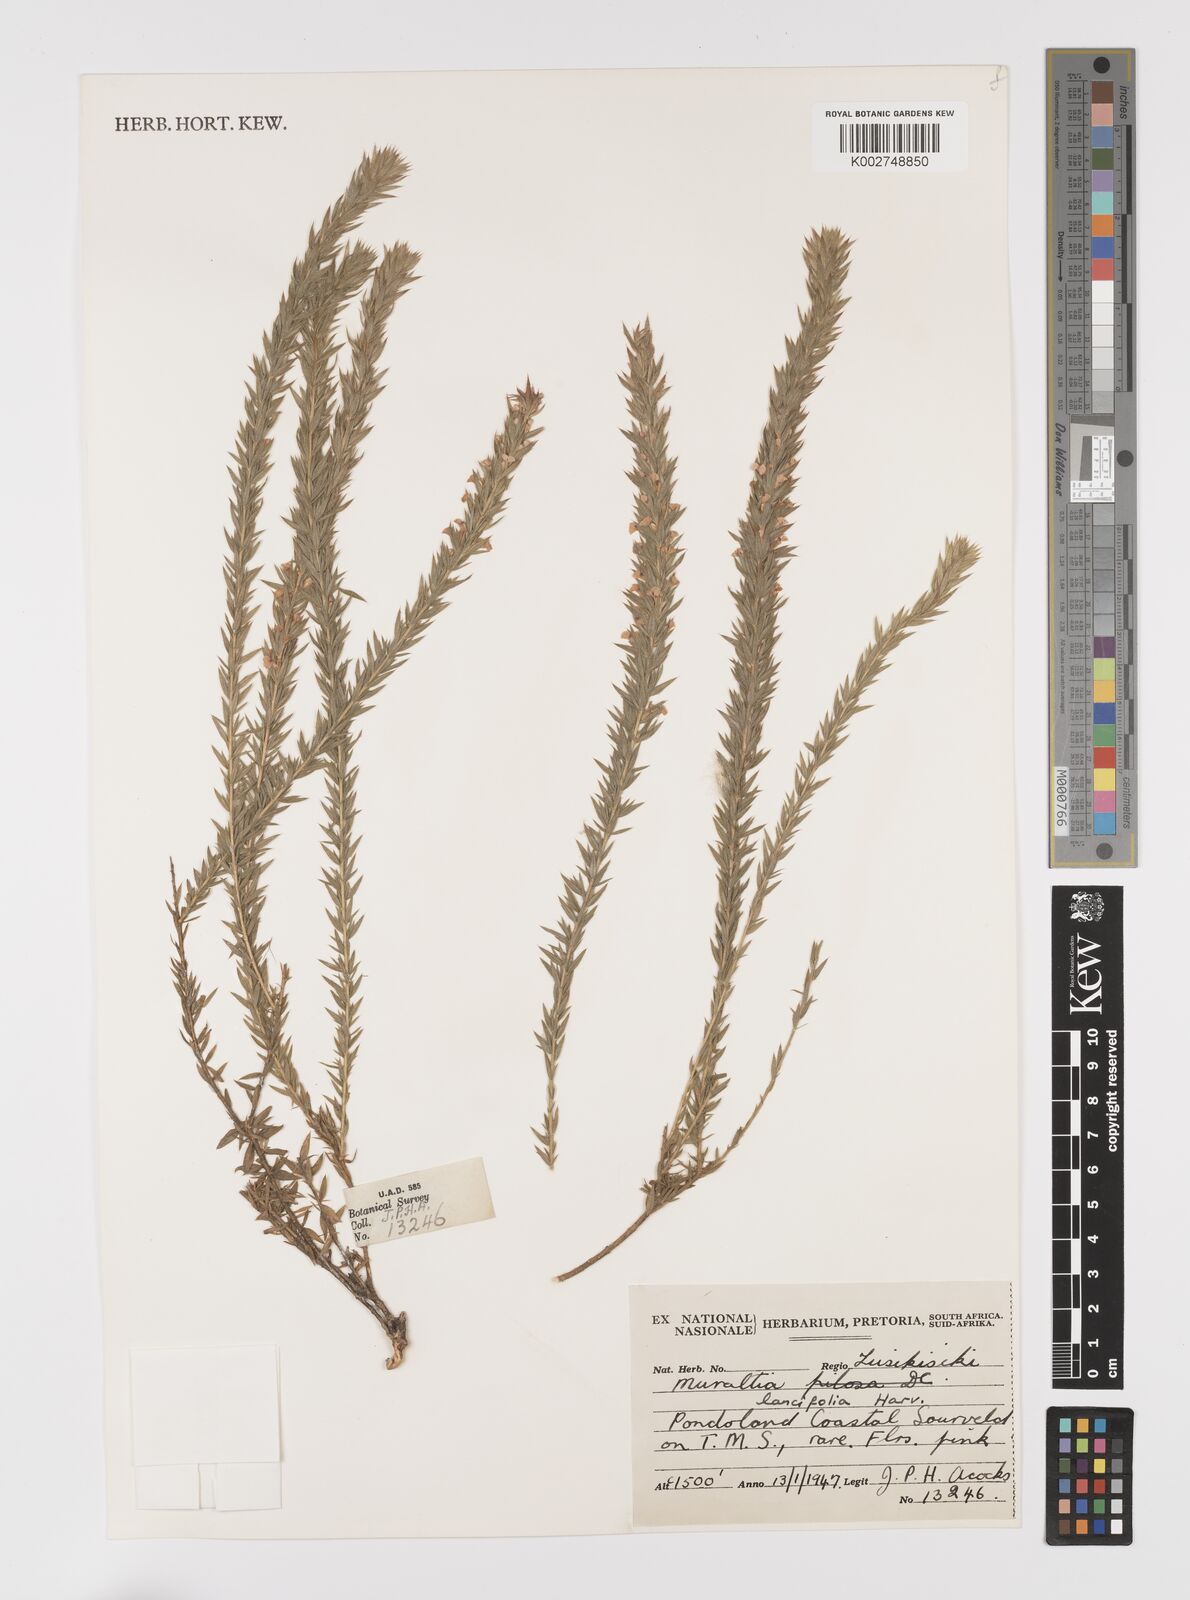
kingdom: Plantae
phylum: Tracheophyta
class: Magnoliopsida
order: Fabales
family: Polygalaceae
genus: Muraltia
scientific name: Muraltia lancifolia
